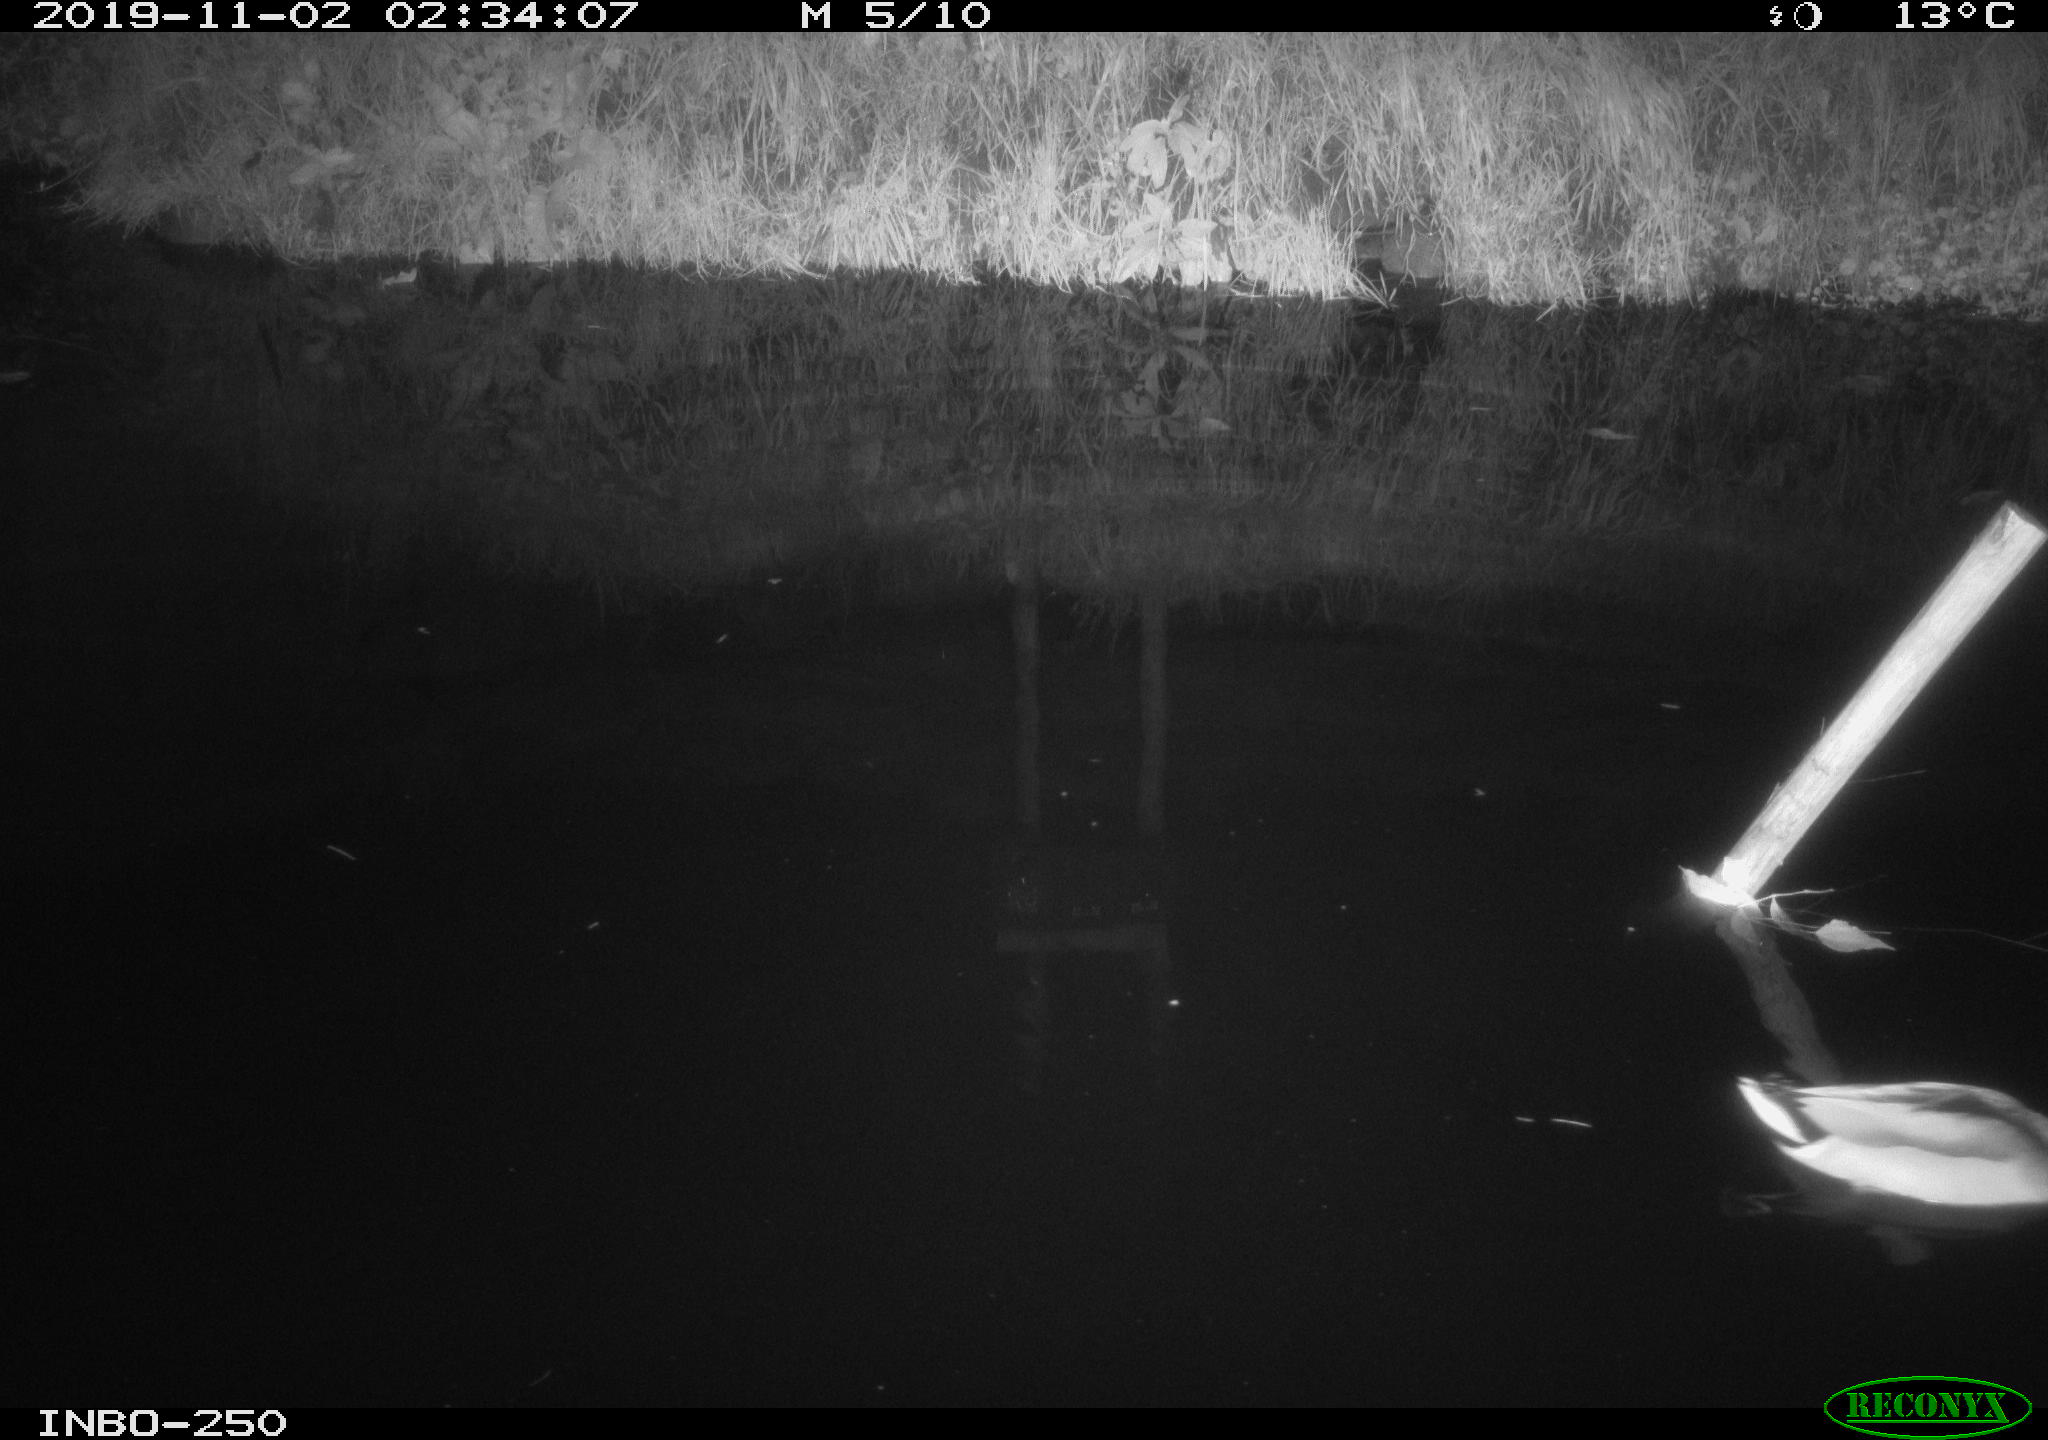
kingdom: Animalia
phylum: Chordata
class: Aves
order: Anseriformes
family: Anatidae
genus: Anas
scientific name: Anas platyrhynchos
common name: Mallard
